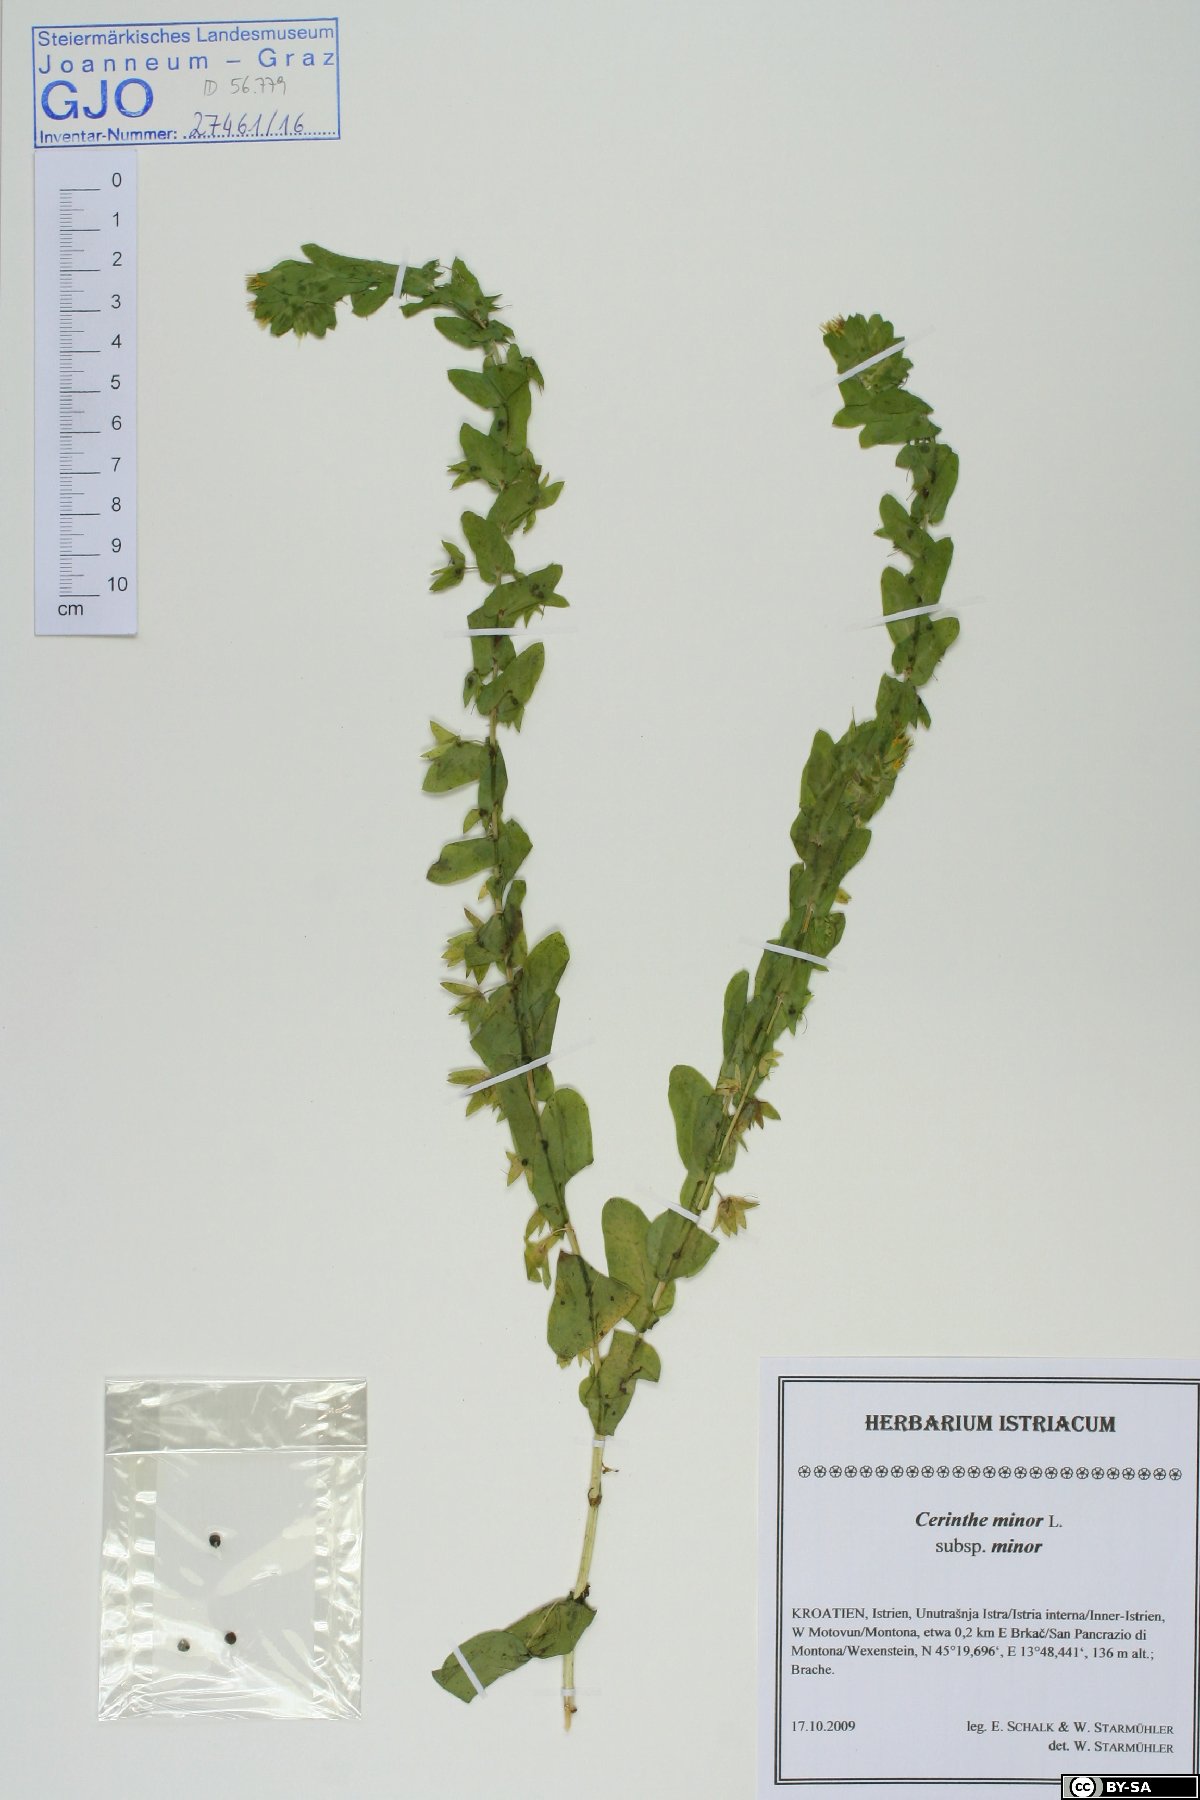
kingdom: Plantae
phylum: Tracheophyta
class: Magnoliopsida
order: Boraginales
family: Boraginaceae
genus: Cerinthe
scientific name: Cerinthe minor
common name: Lesser honeywort
